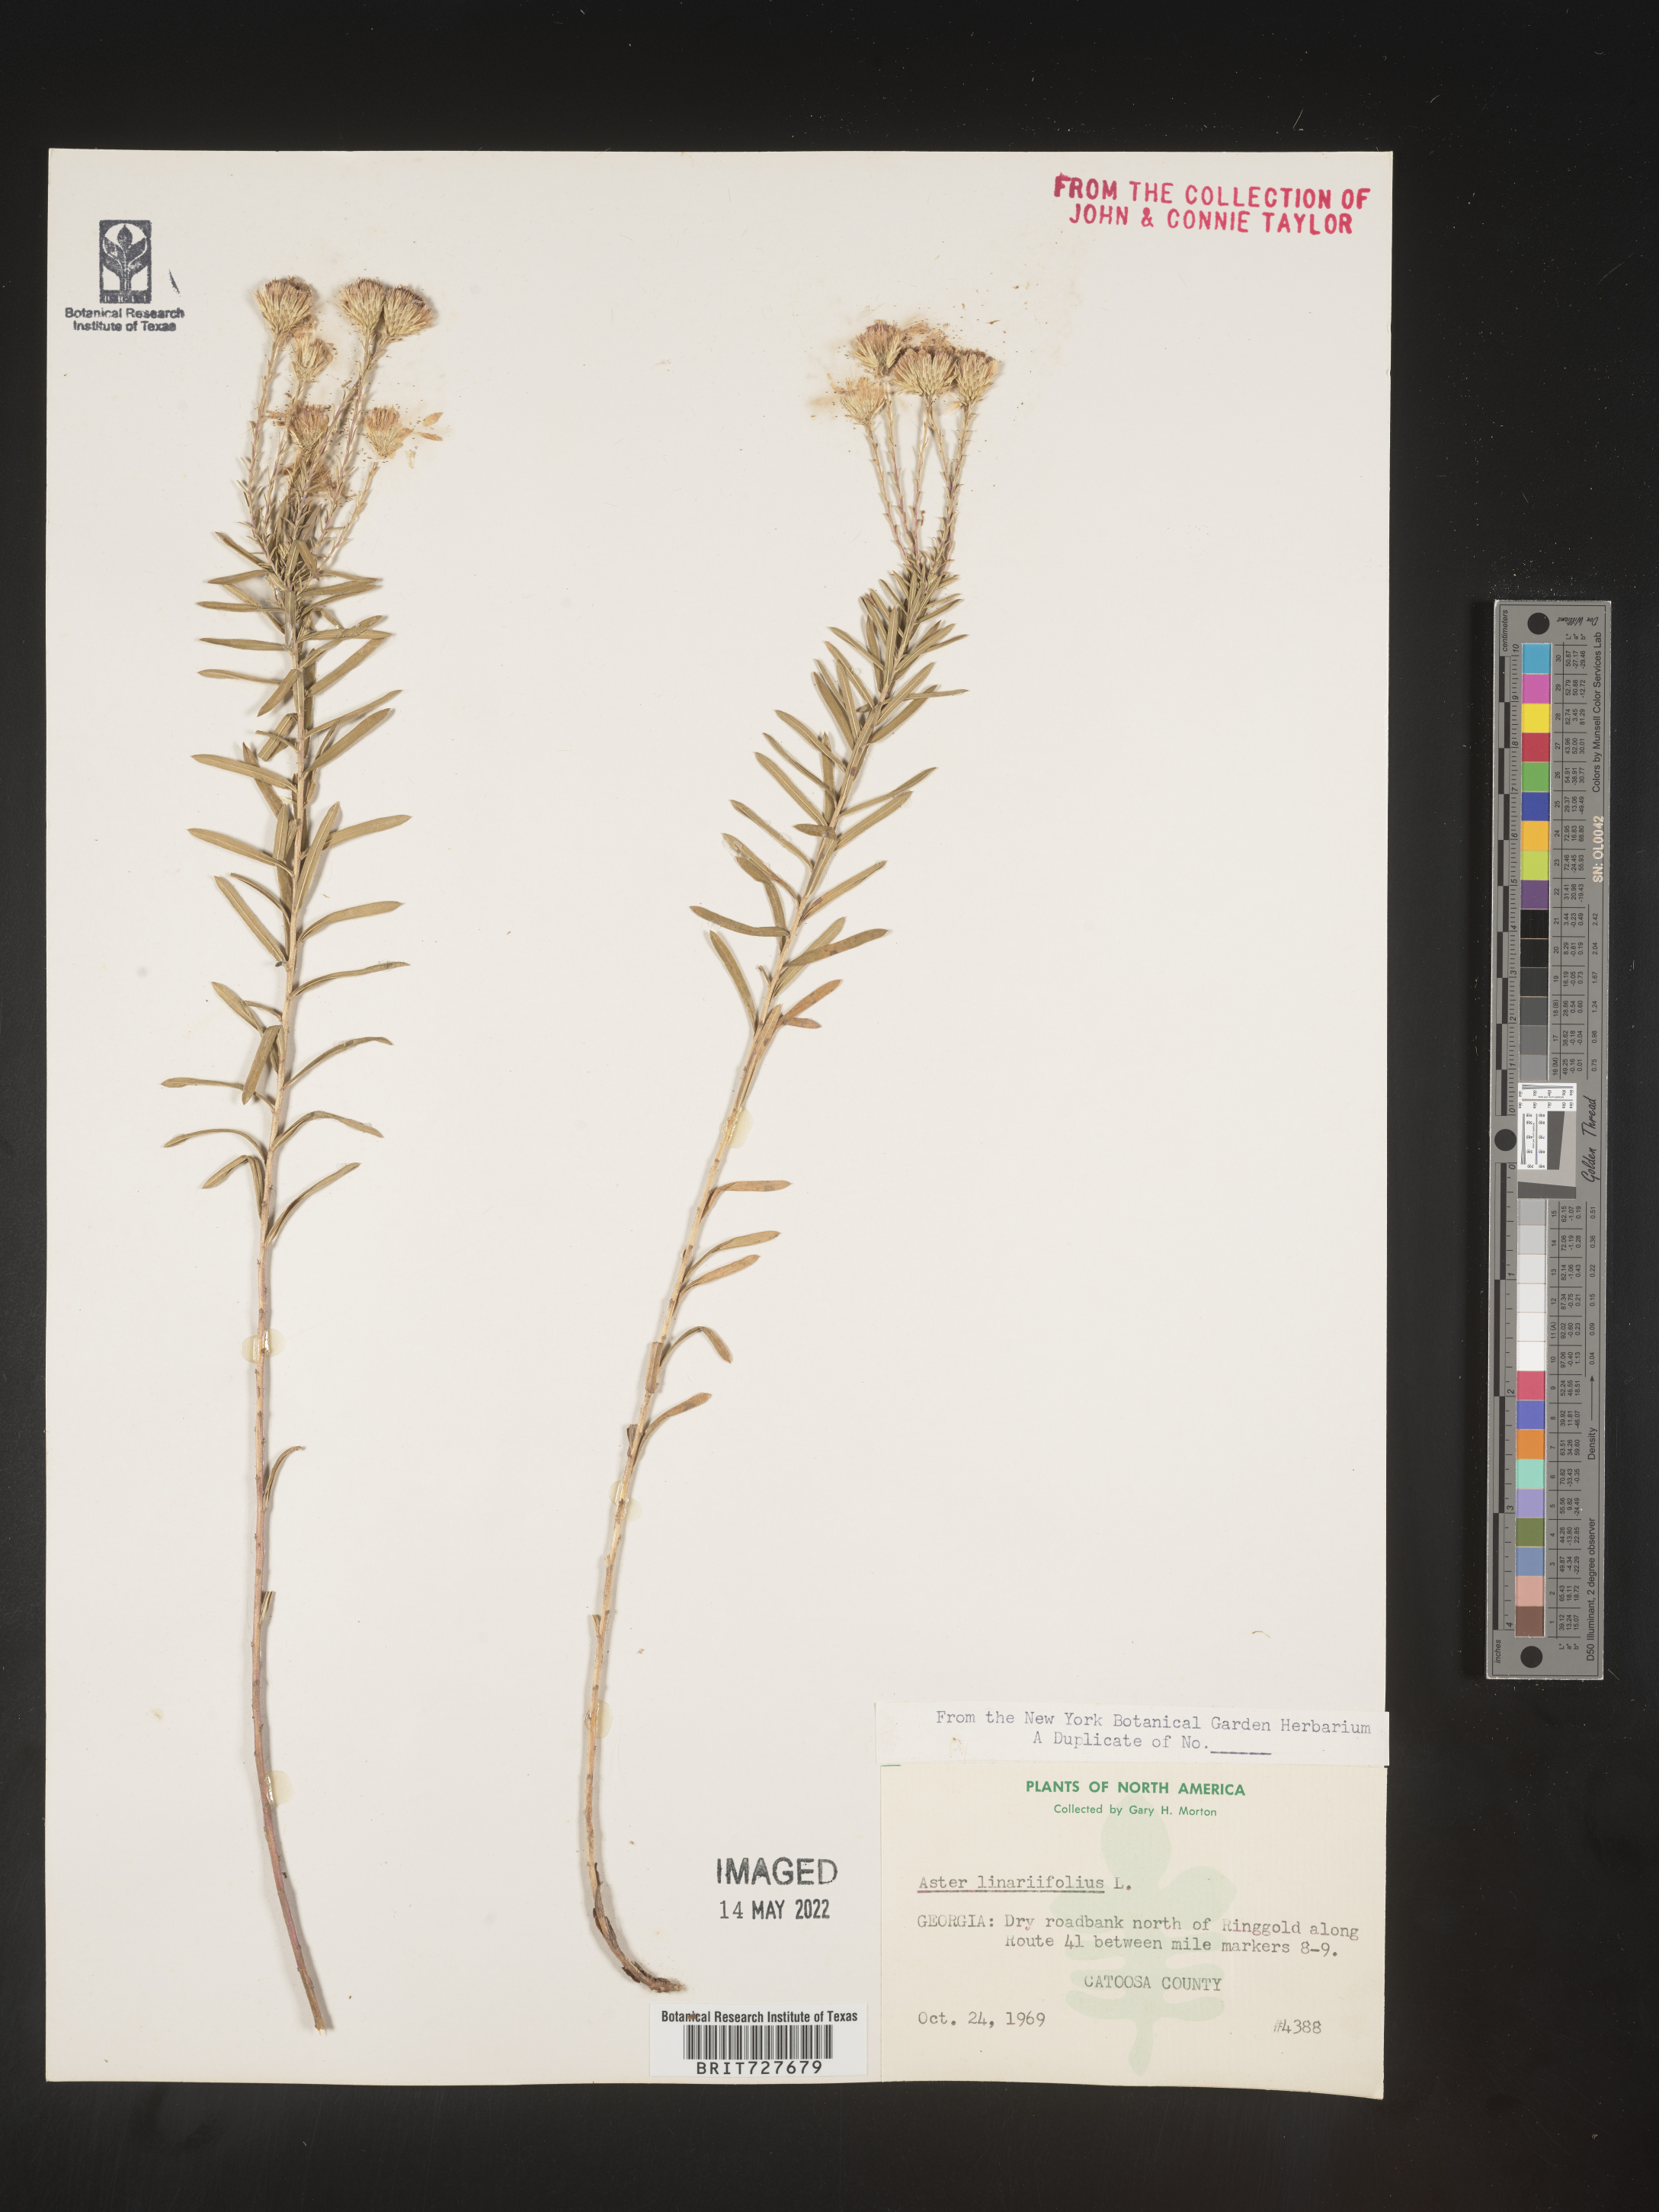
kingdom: Plantae
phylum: Tracheophyta
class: Magnoliopsida
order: Asterales
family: Asteraceae
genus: Ionactis
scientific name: Ionactis linariifolia
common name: Flax-leaf aster
